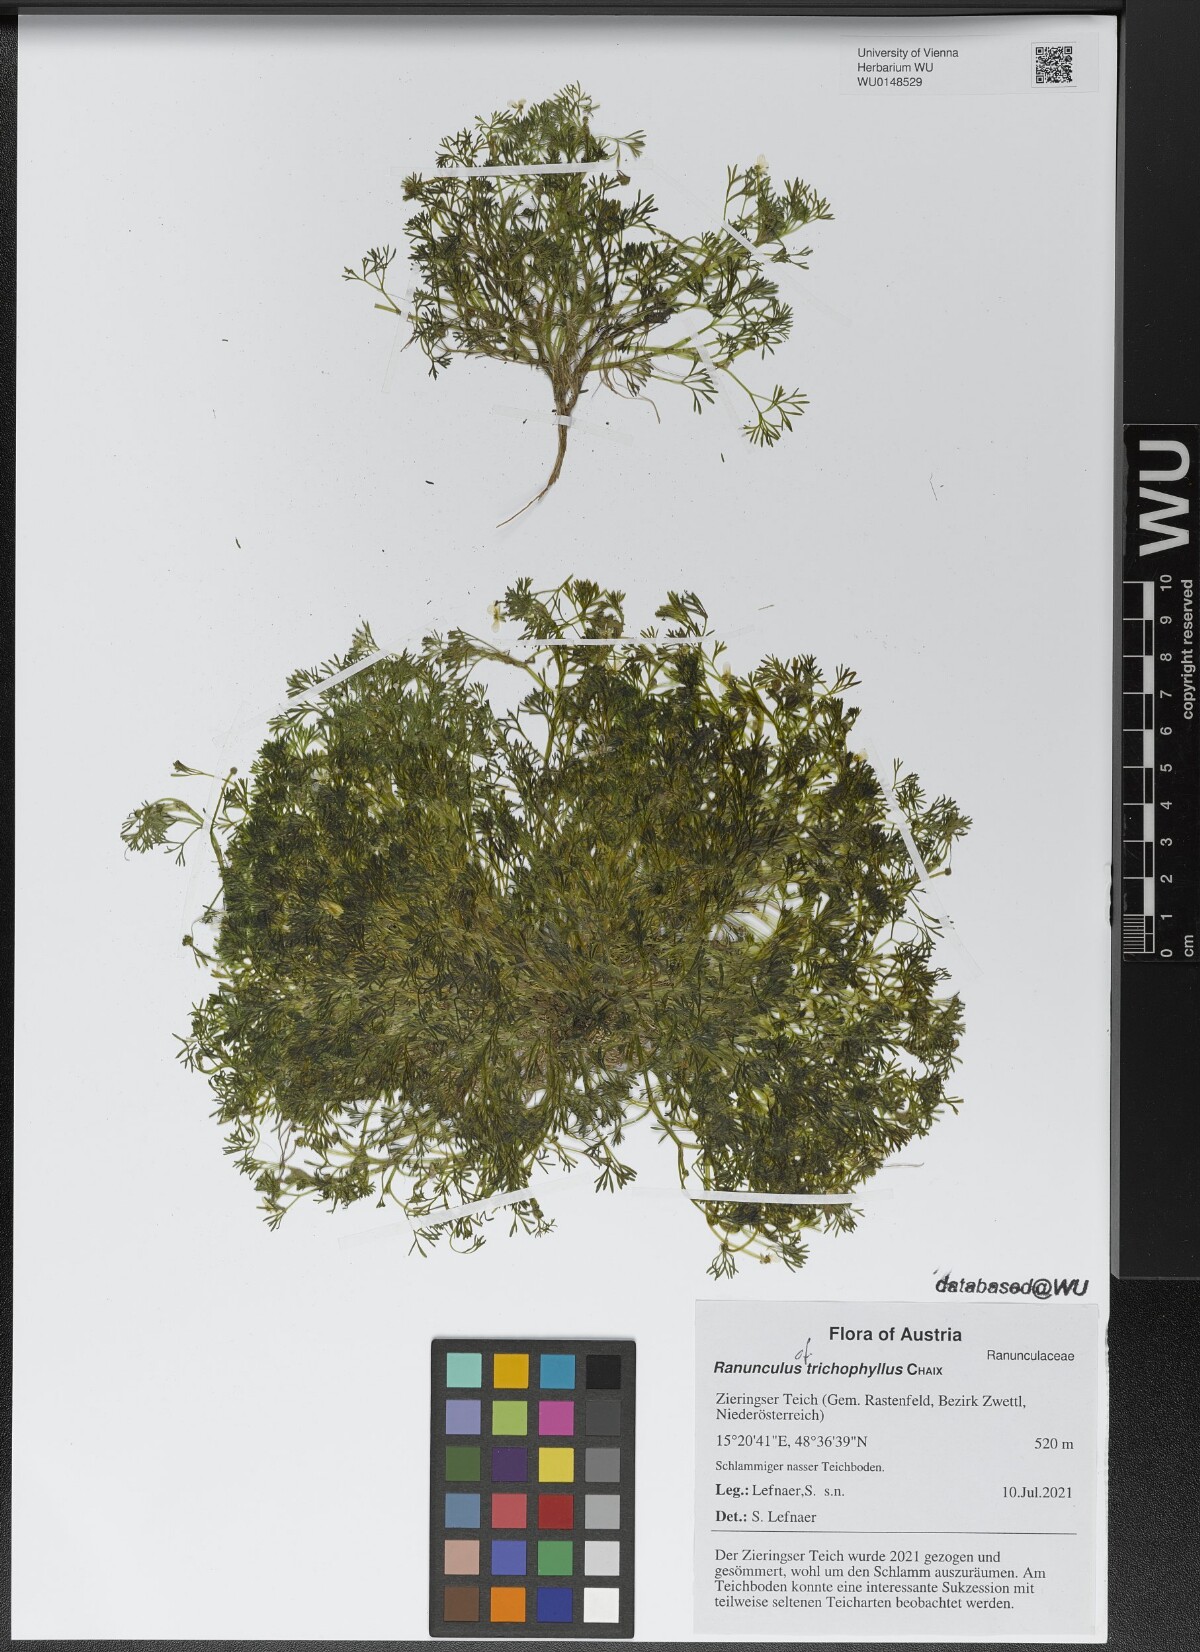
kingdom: Plantae
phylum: Tracheophyta
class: Magnoliopsida
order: Ranunculales
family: Ranunculaceae
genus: Ranunculus
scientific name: Ranunculus trichophyllus
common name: Thread-leaved water-crowfoot
